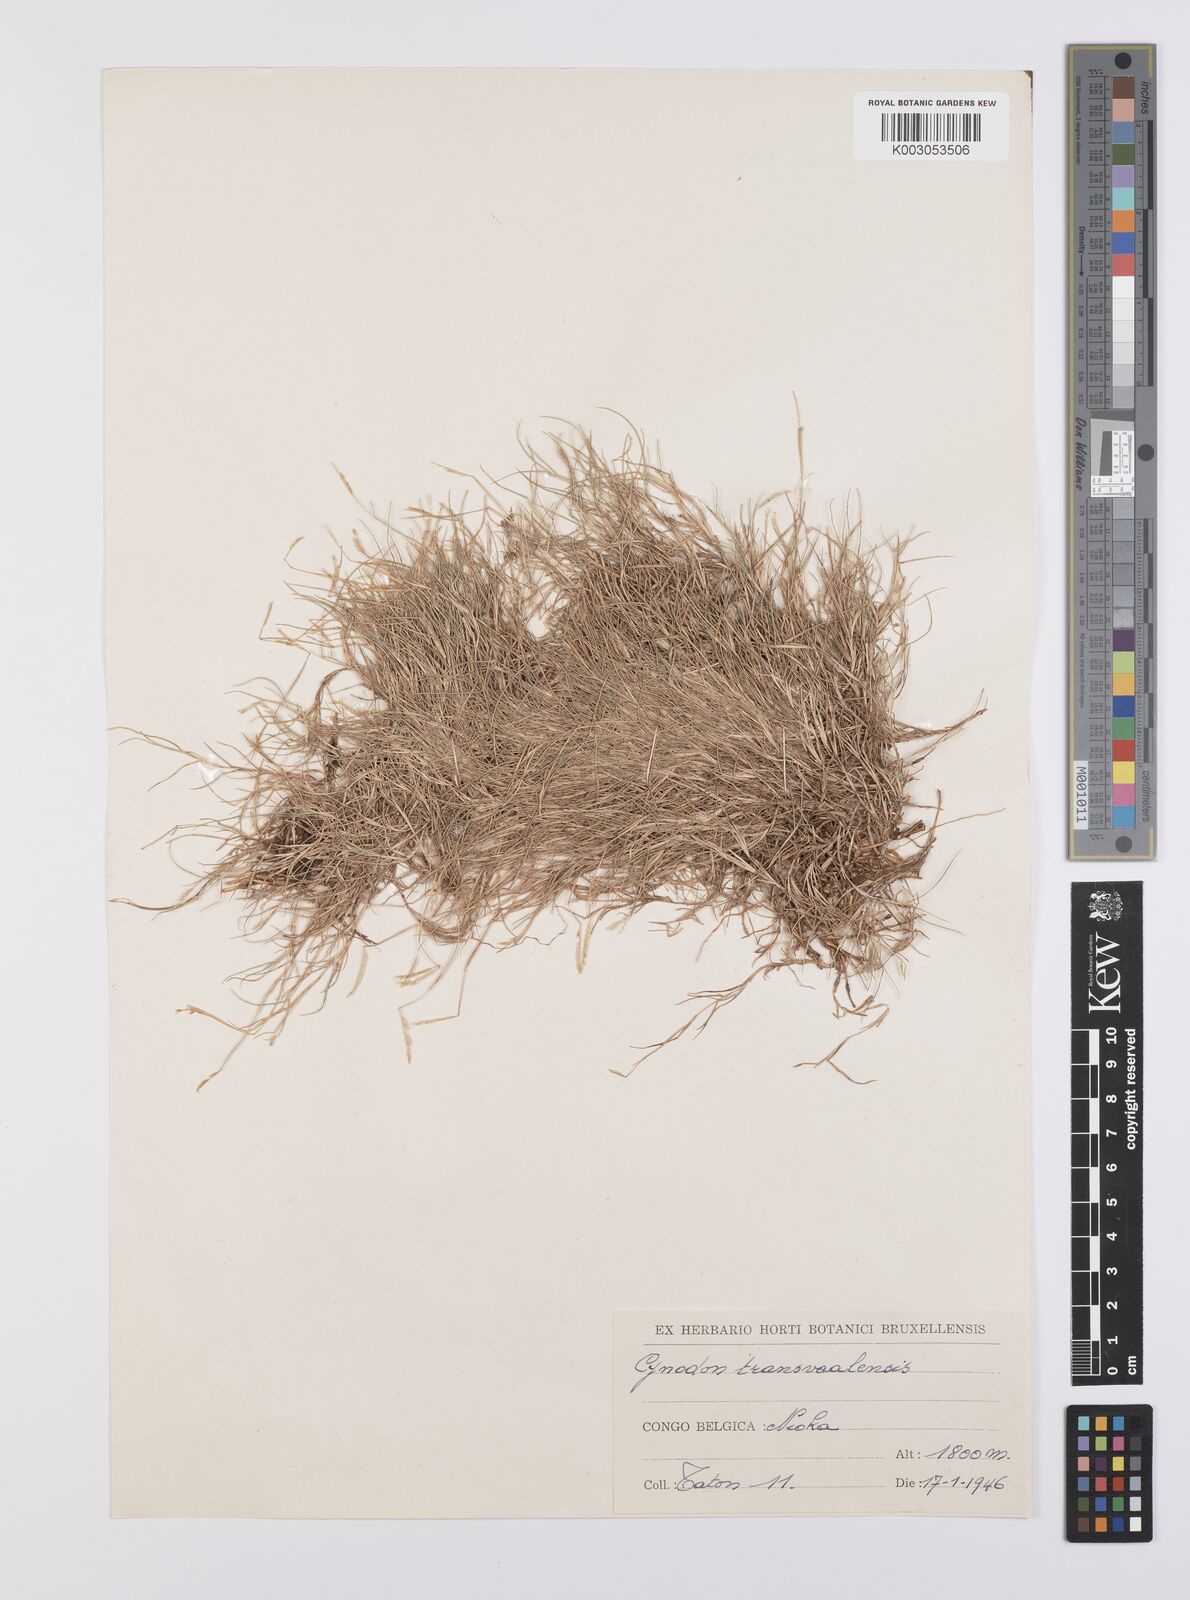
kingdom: Plantae
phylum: Tracheophyta
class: Liliopsida
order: Poales
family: Poaceae
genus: Cynodon
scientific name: Cynodon transvaalensis
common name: African bermuda grass
